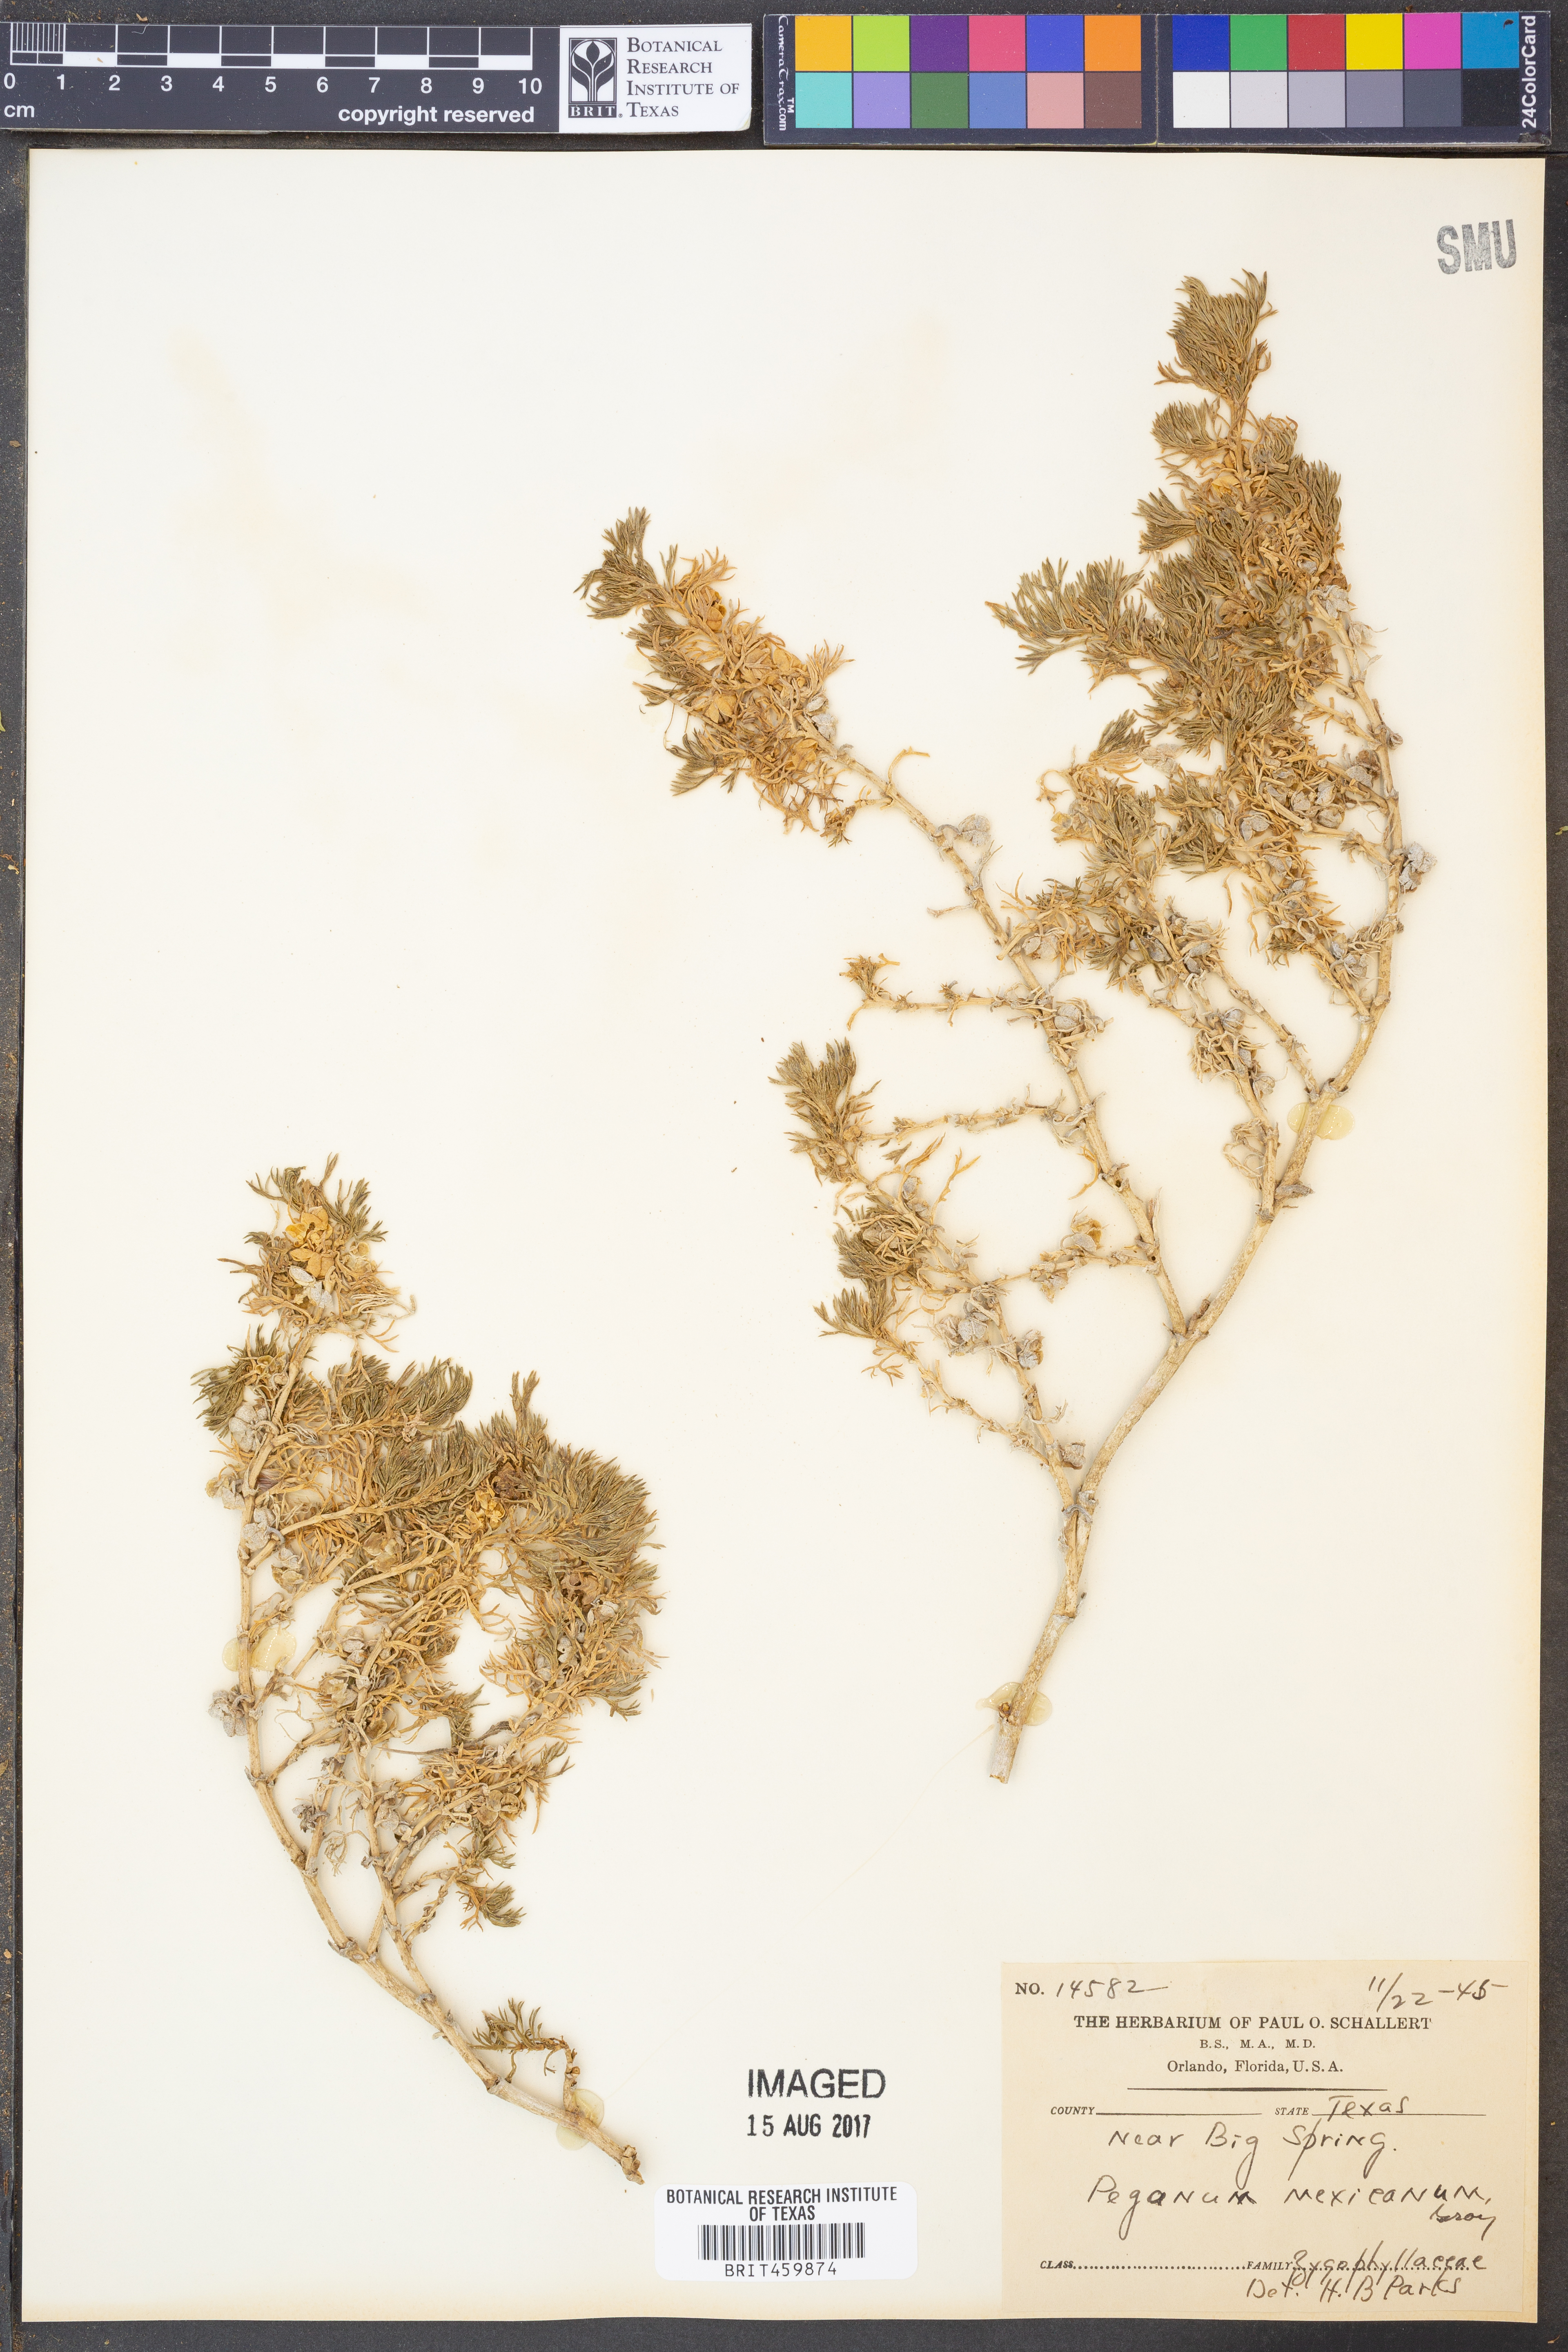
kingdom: Plantae
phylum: Tracheophyta
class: Magnoliopsida
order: Sapindales
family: Tetradiclidaceae
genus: Peganum
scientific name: Peganum mexicanum
